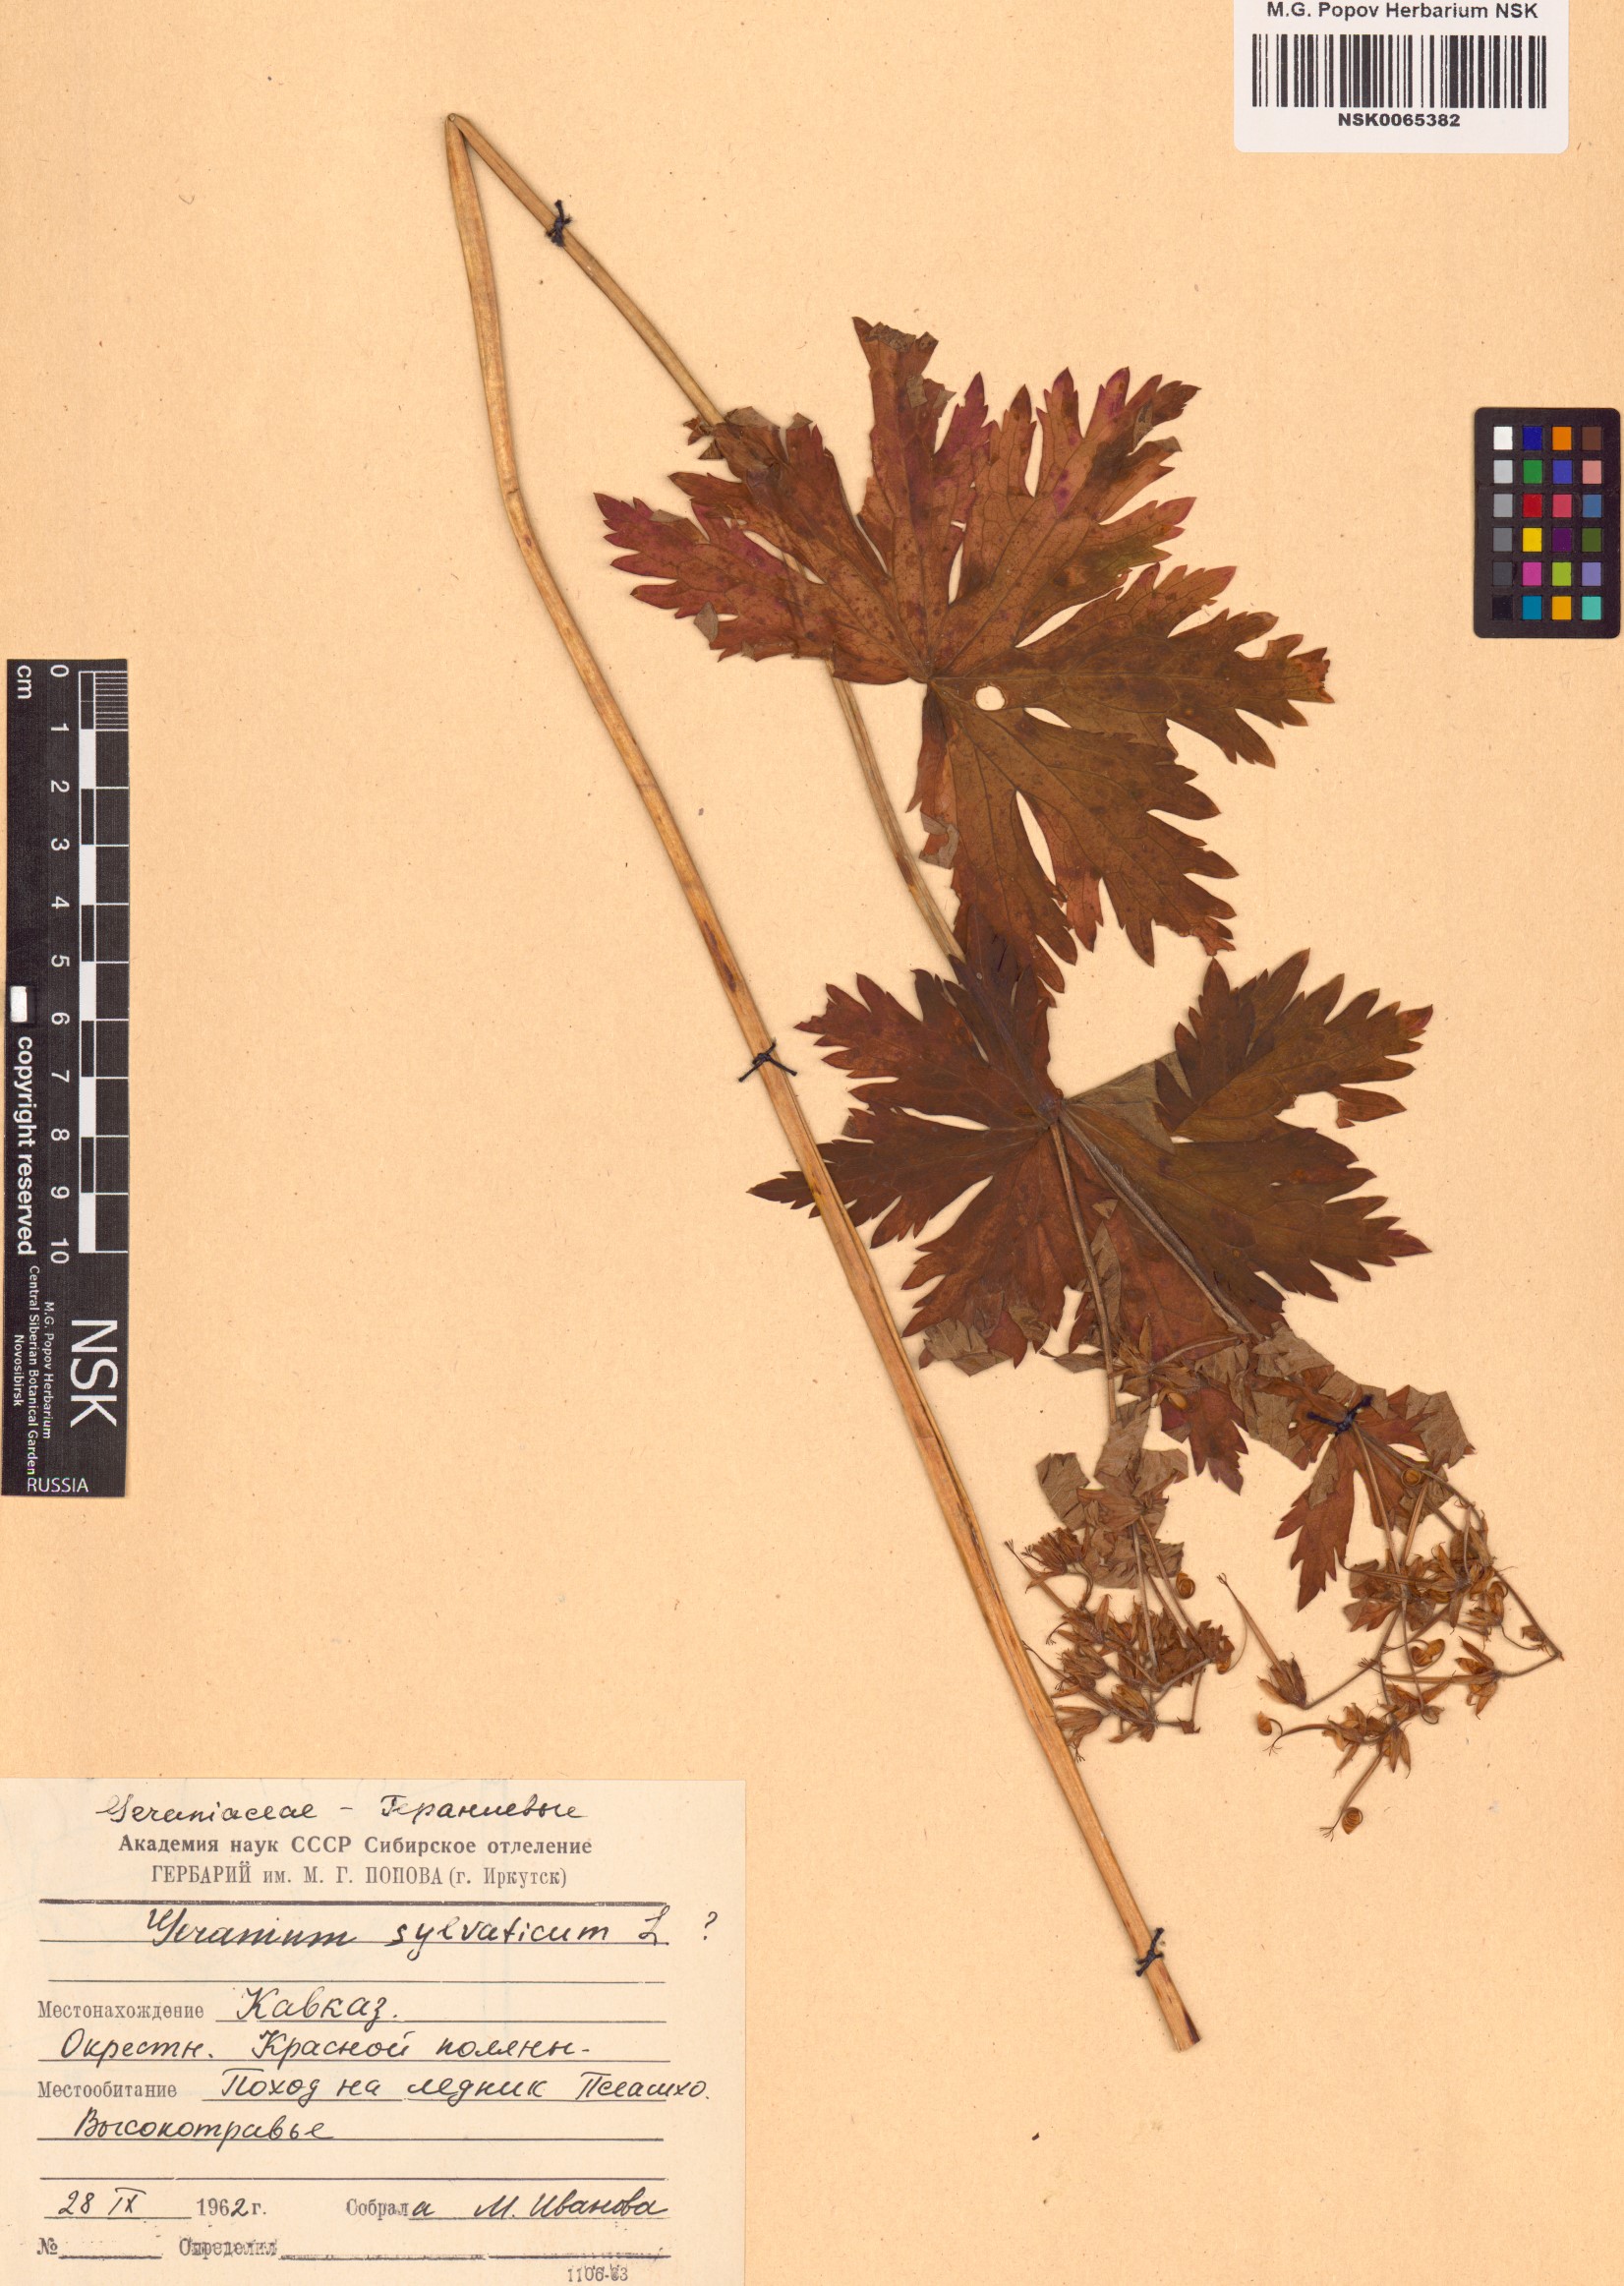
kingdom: Plantae
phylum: Tracheophyta
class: Magnoliopsida
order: Geraniales
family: Geraniaceae
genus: Geranium
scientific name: Geranium sylvaticum
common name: Wood crane's-bill
